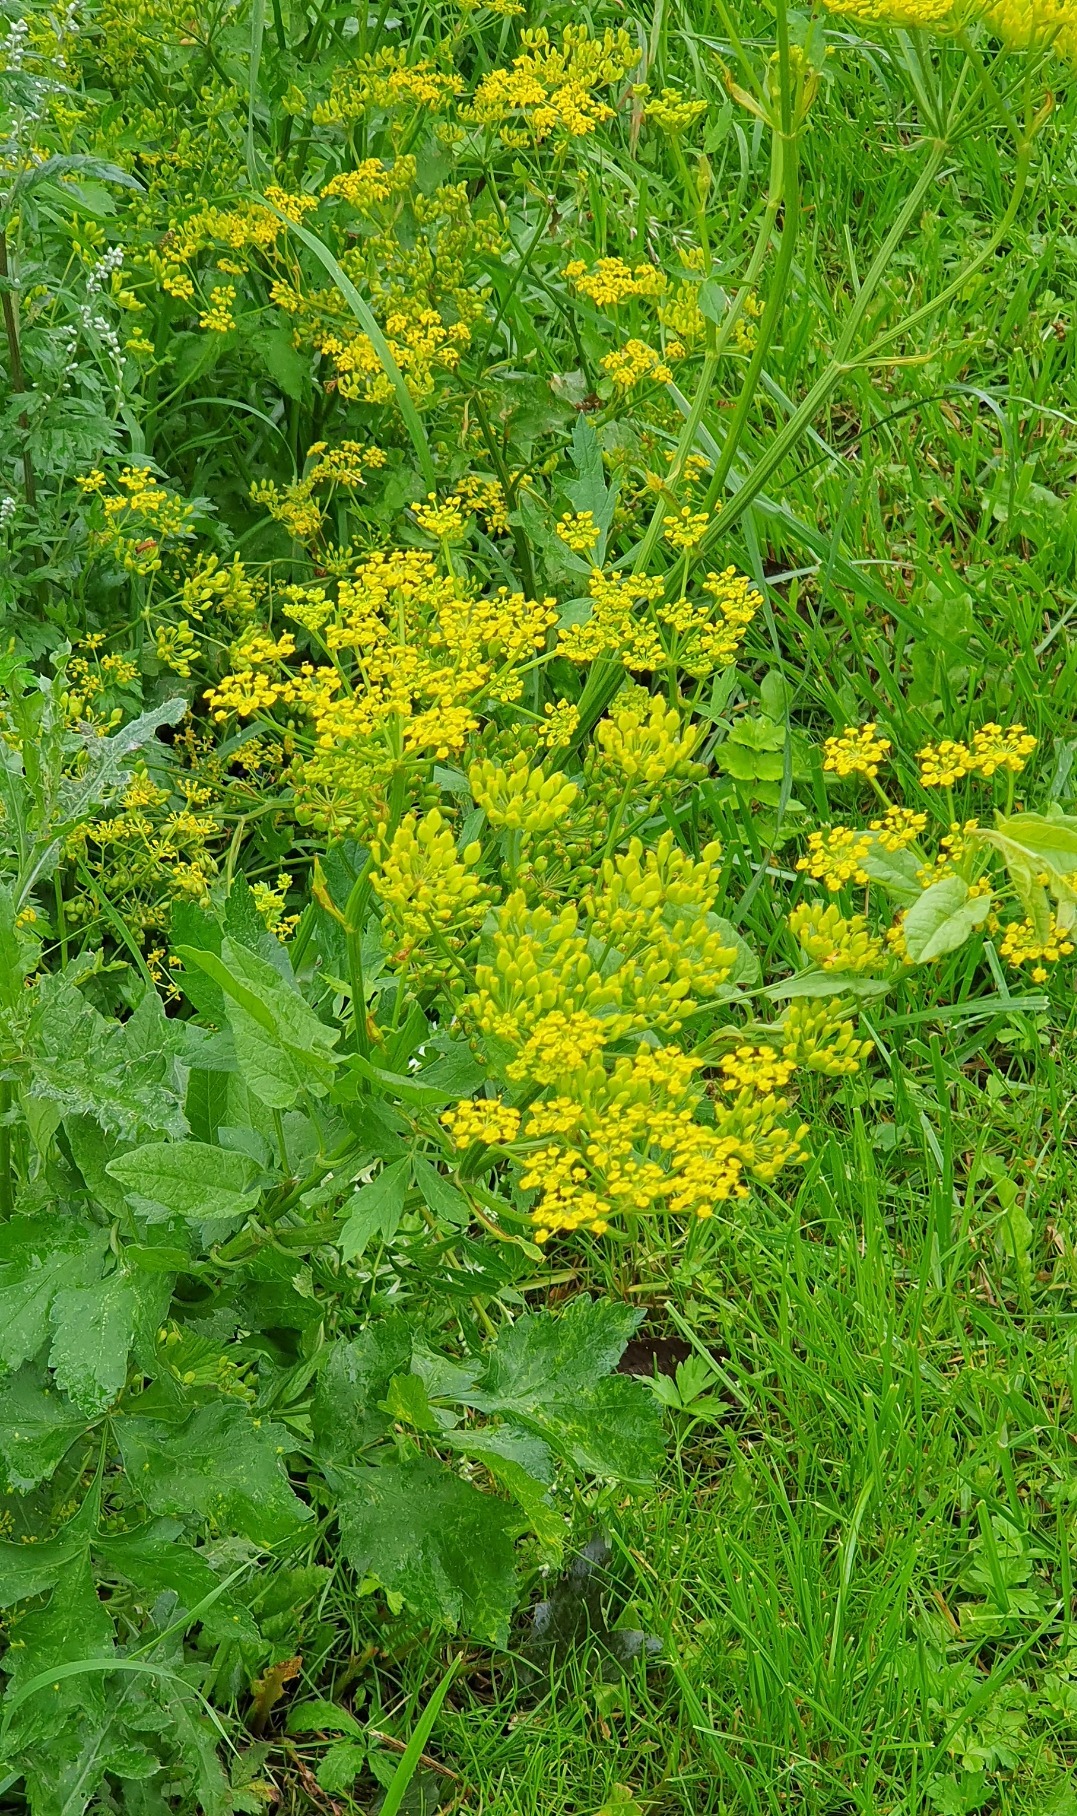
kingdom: Plantae
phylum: Tracheophyta
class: Magnoliopsida
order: Apiales
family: Apiaceae
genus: Pastinaca
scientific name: Pastinaca sativa
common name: Have-pastinak
